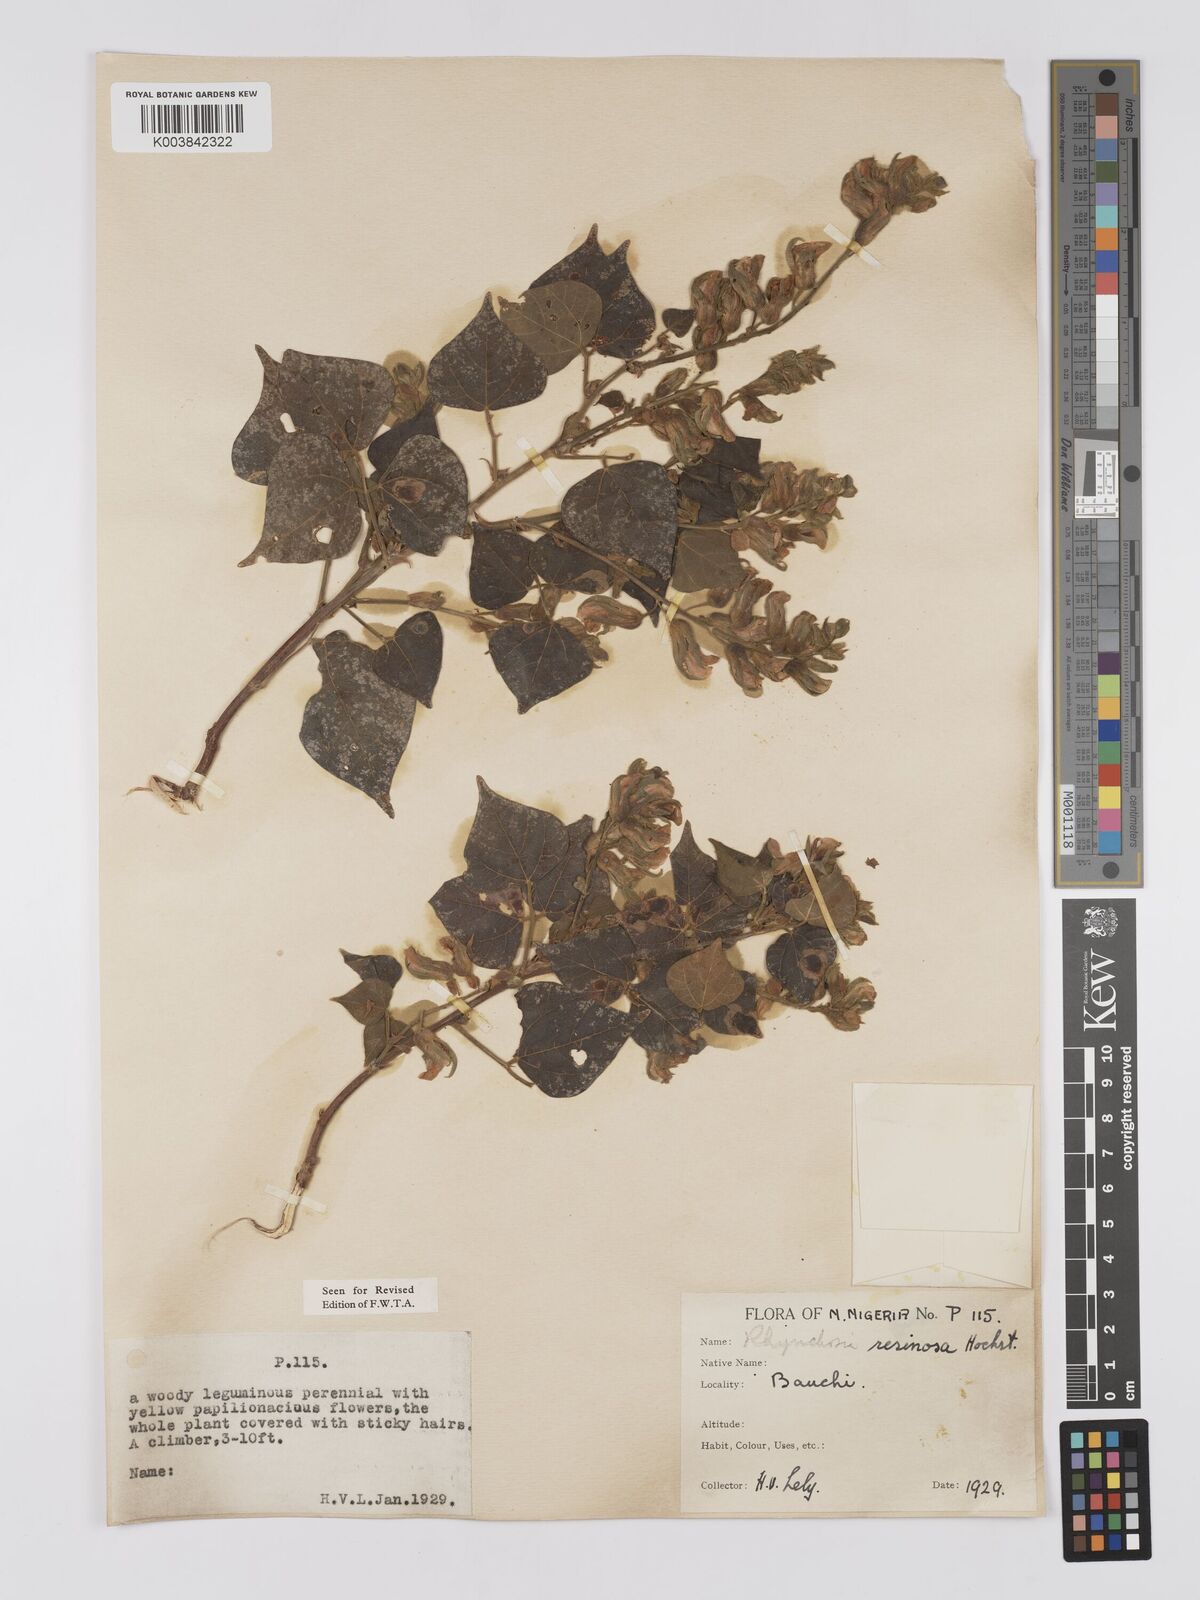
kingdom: Plantae
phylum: Tracheophyta
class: Magnoliopsida
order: Fabales
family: Fabaceae
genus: Rhynchosia
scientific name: Rhynchosia resinosa
